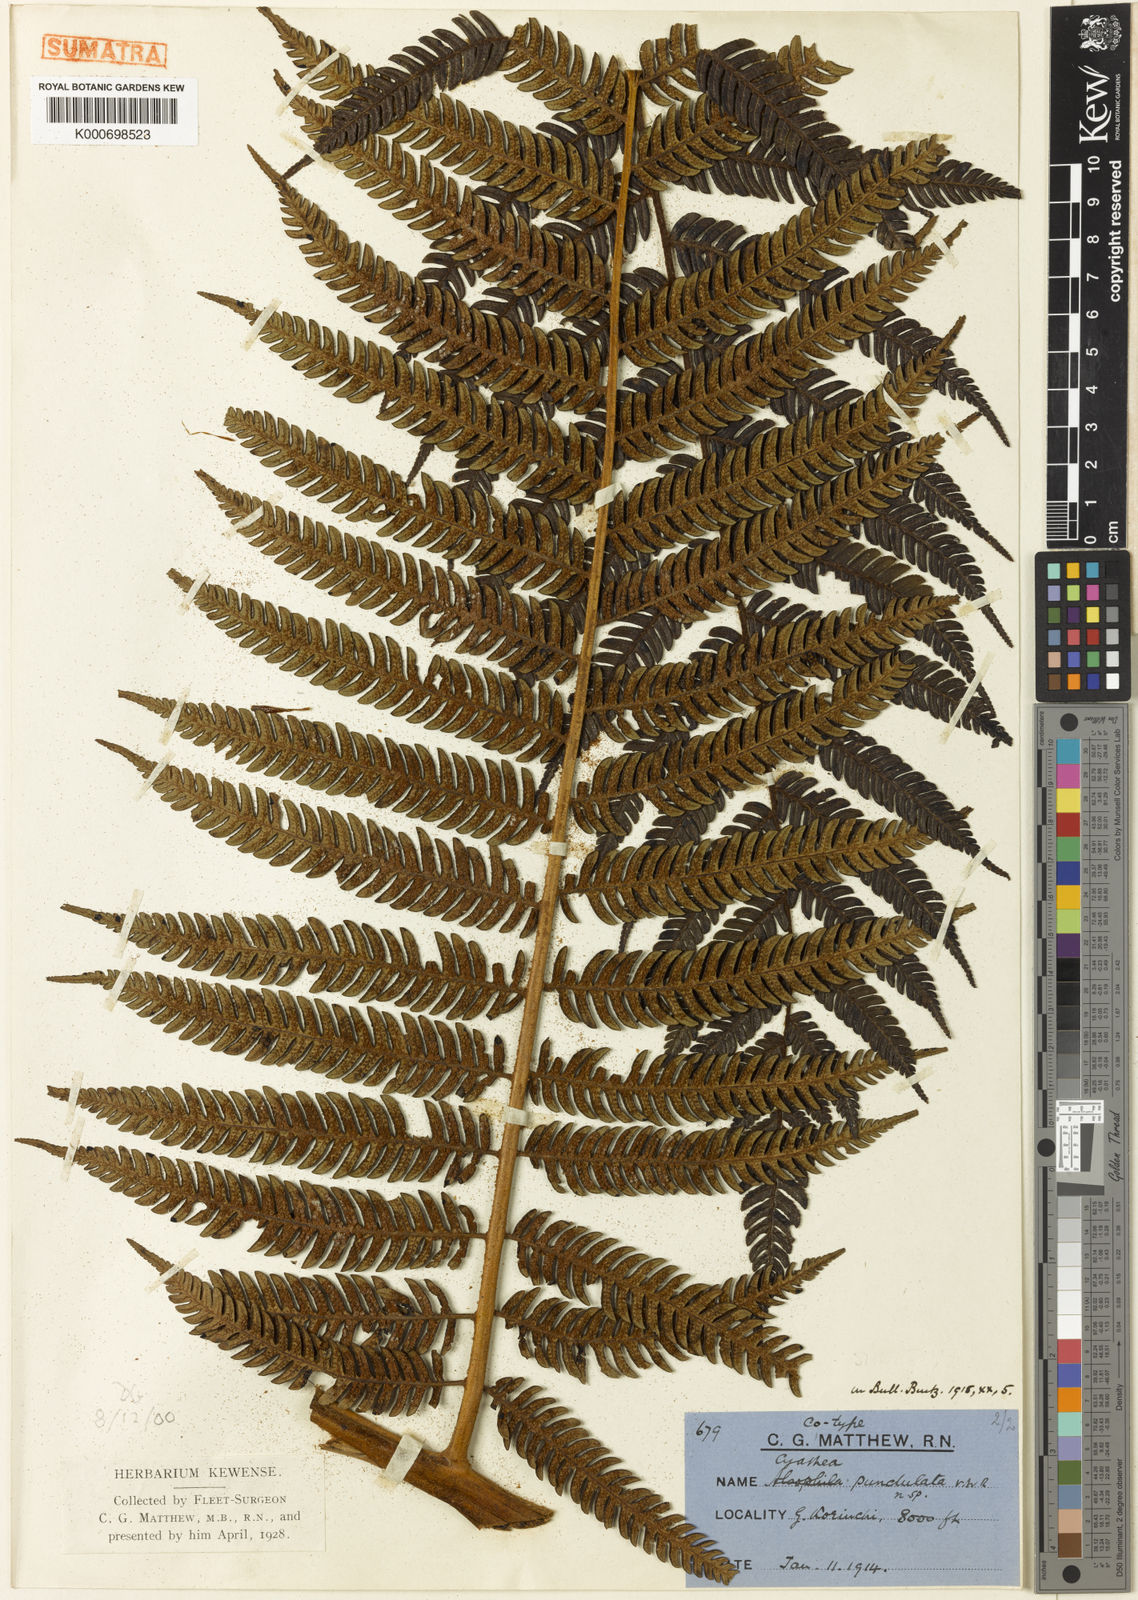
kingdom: Plantae
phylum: Tracheophyta
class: Polypodiopsida
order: Cyatheales
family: Cyatheaceae
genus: Alsophila
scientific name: Alsophila punctulata
